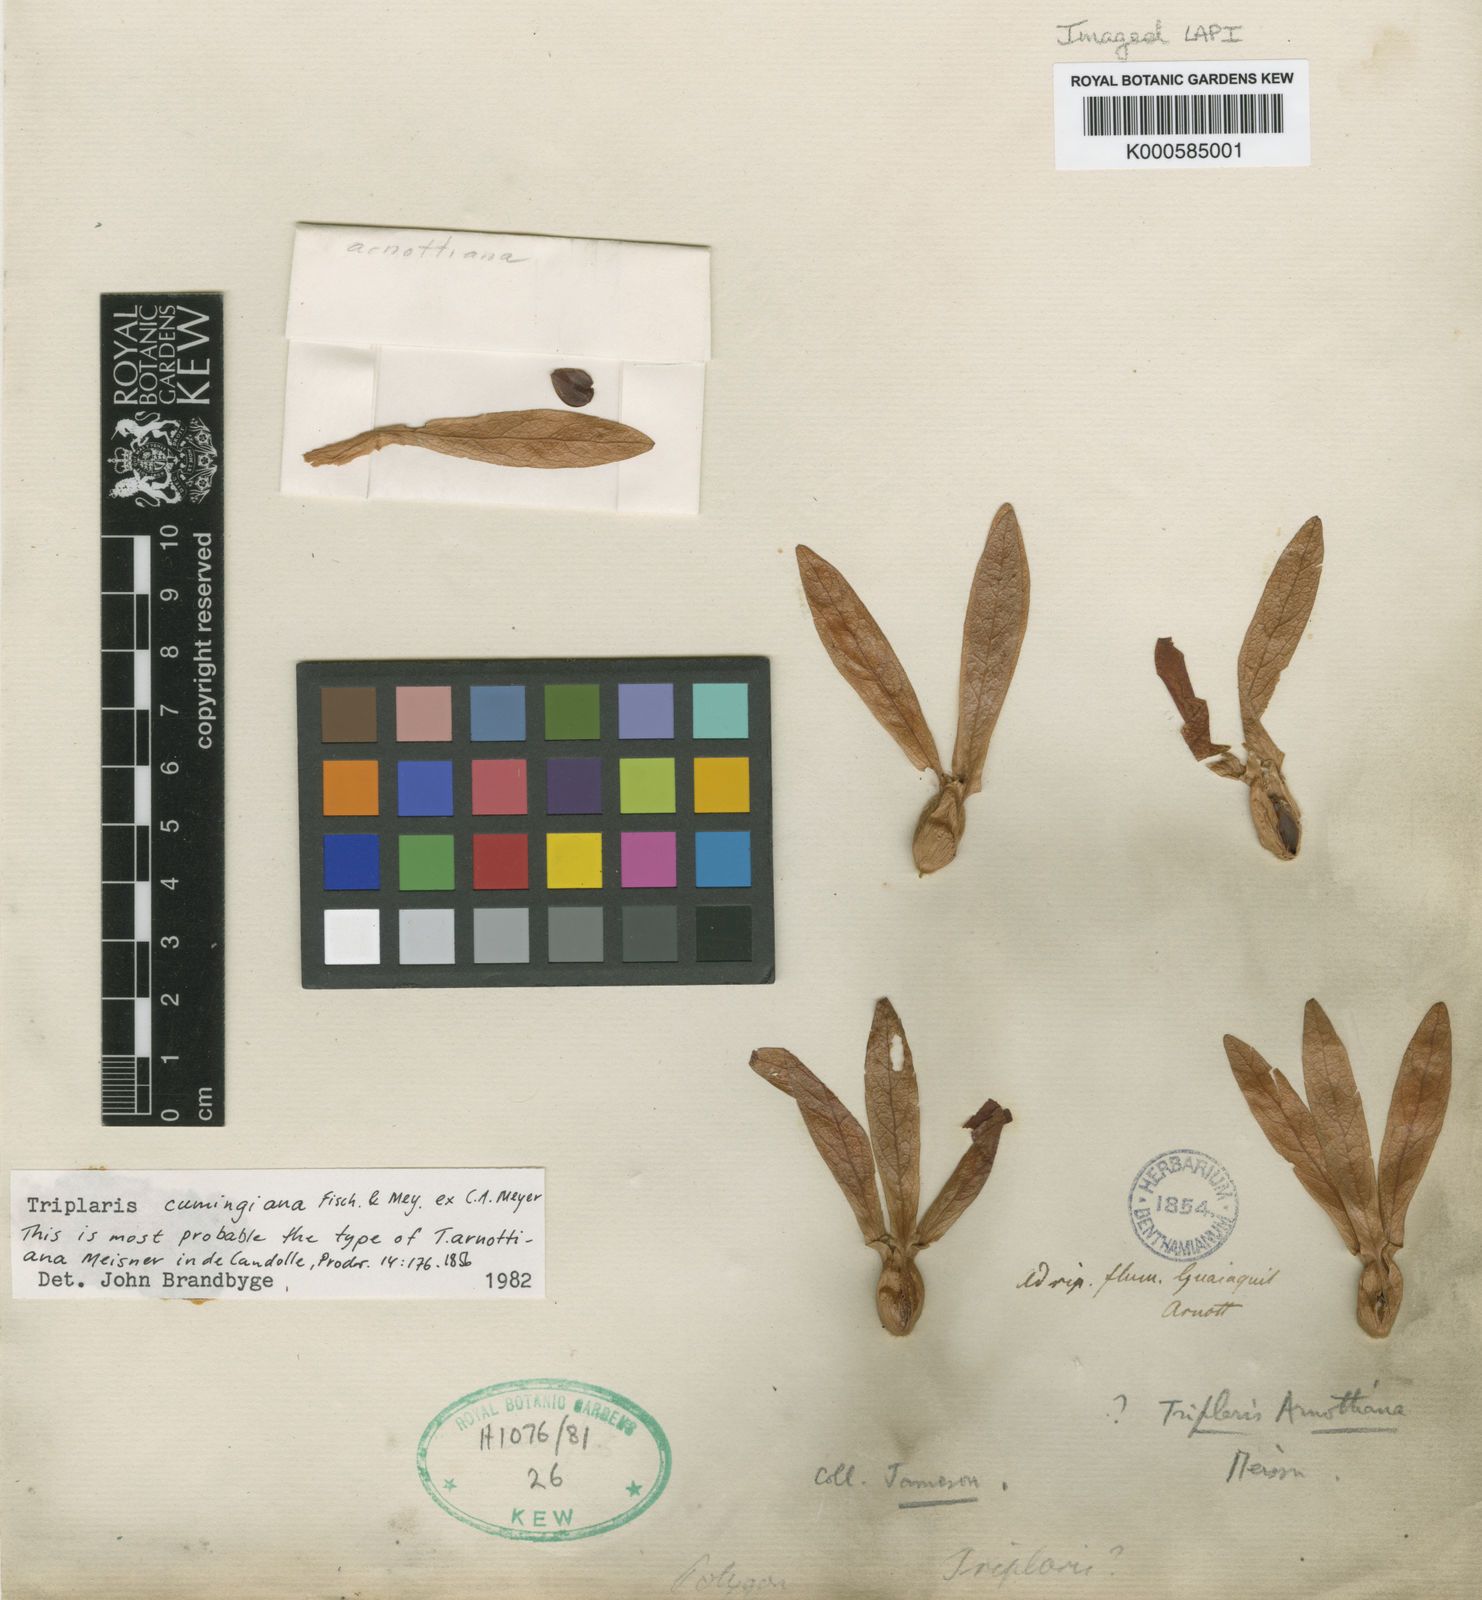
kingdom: Plantae
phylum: Tracheophyta
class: Magnoliopsida
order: Caryophyllales
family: Polygonaceae
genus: Triplaris
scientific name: Triplaris cumingiana
